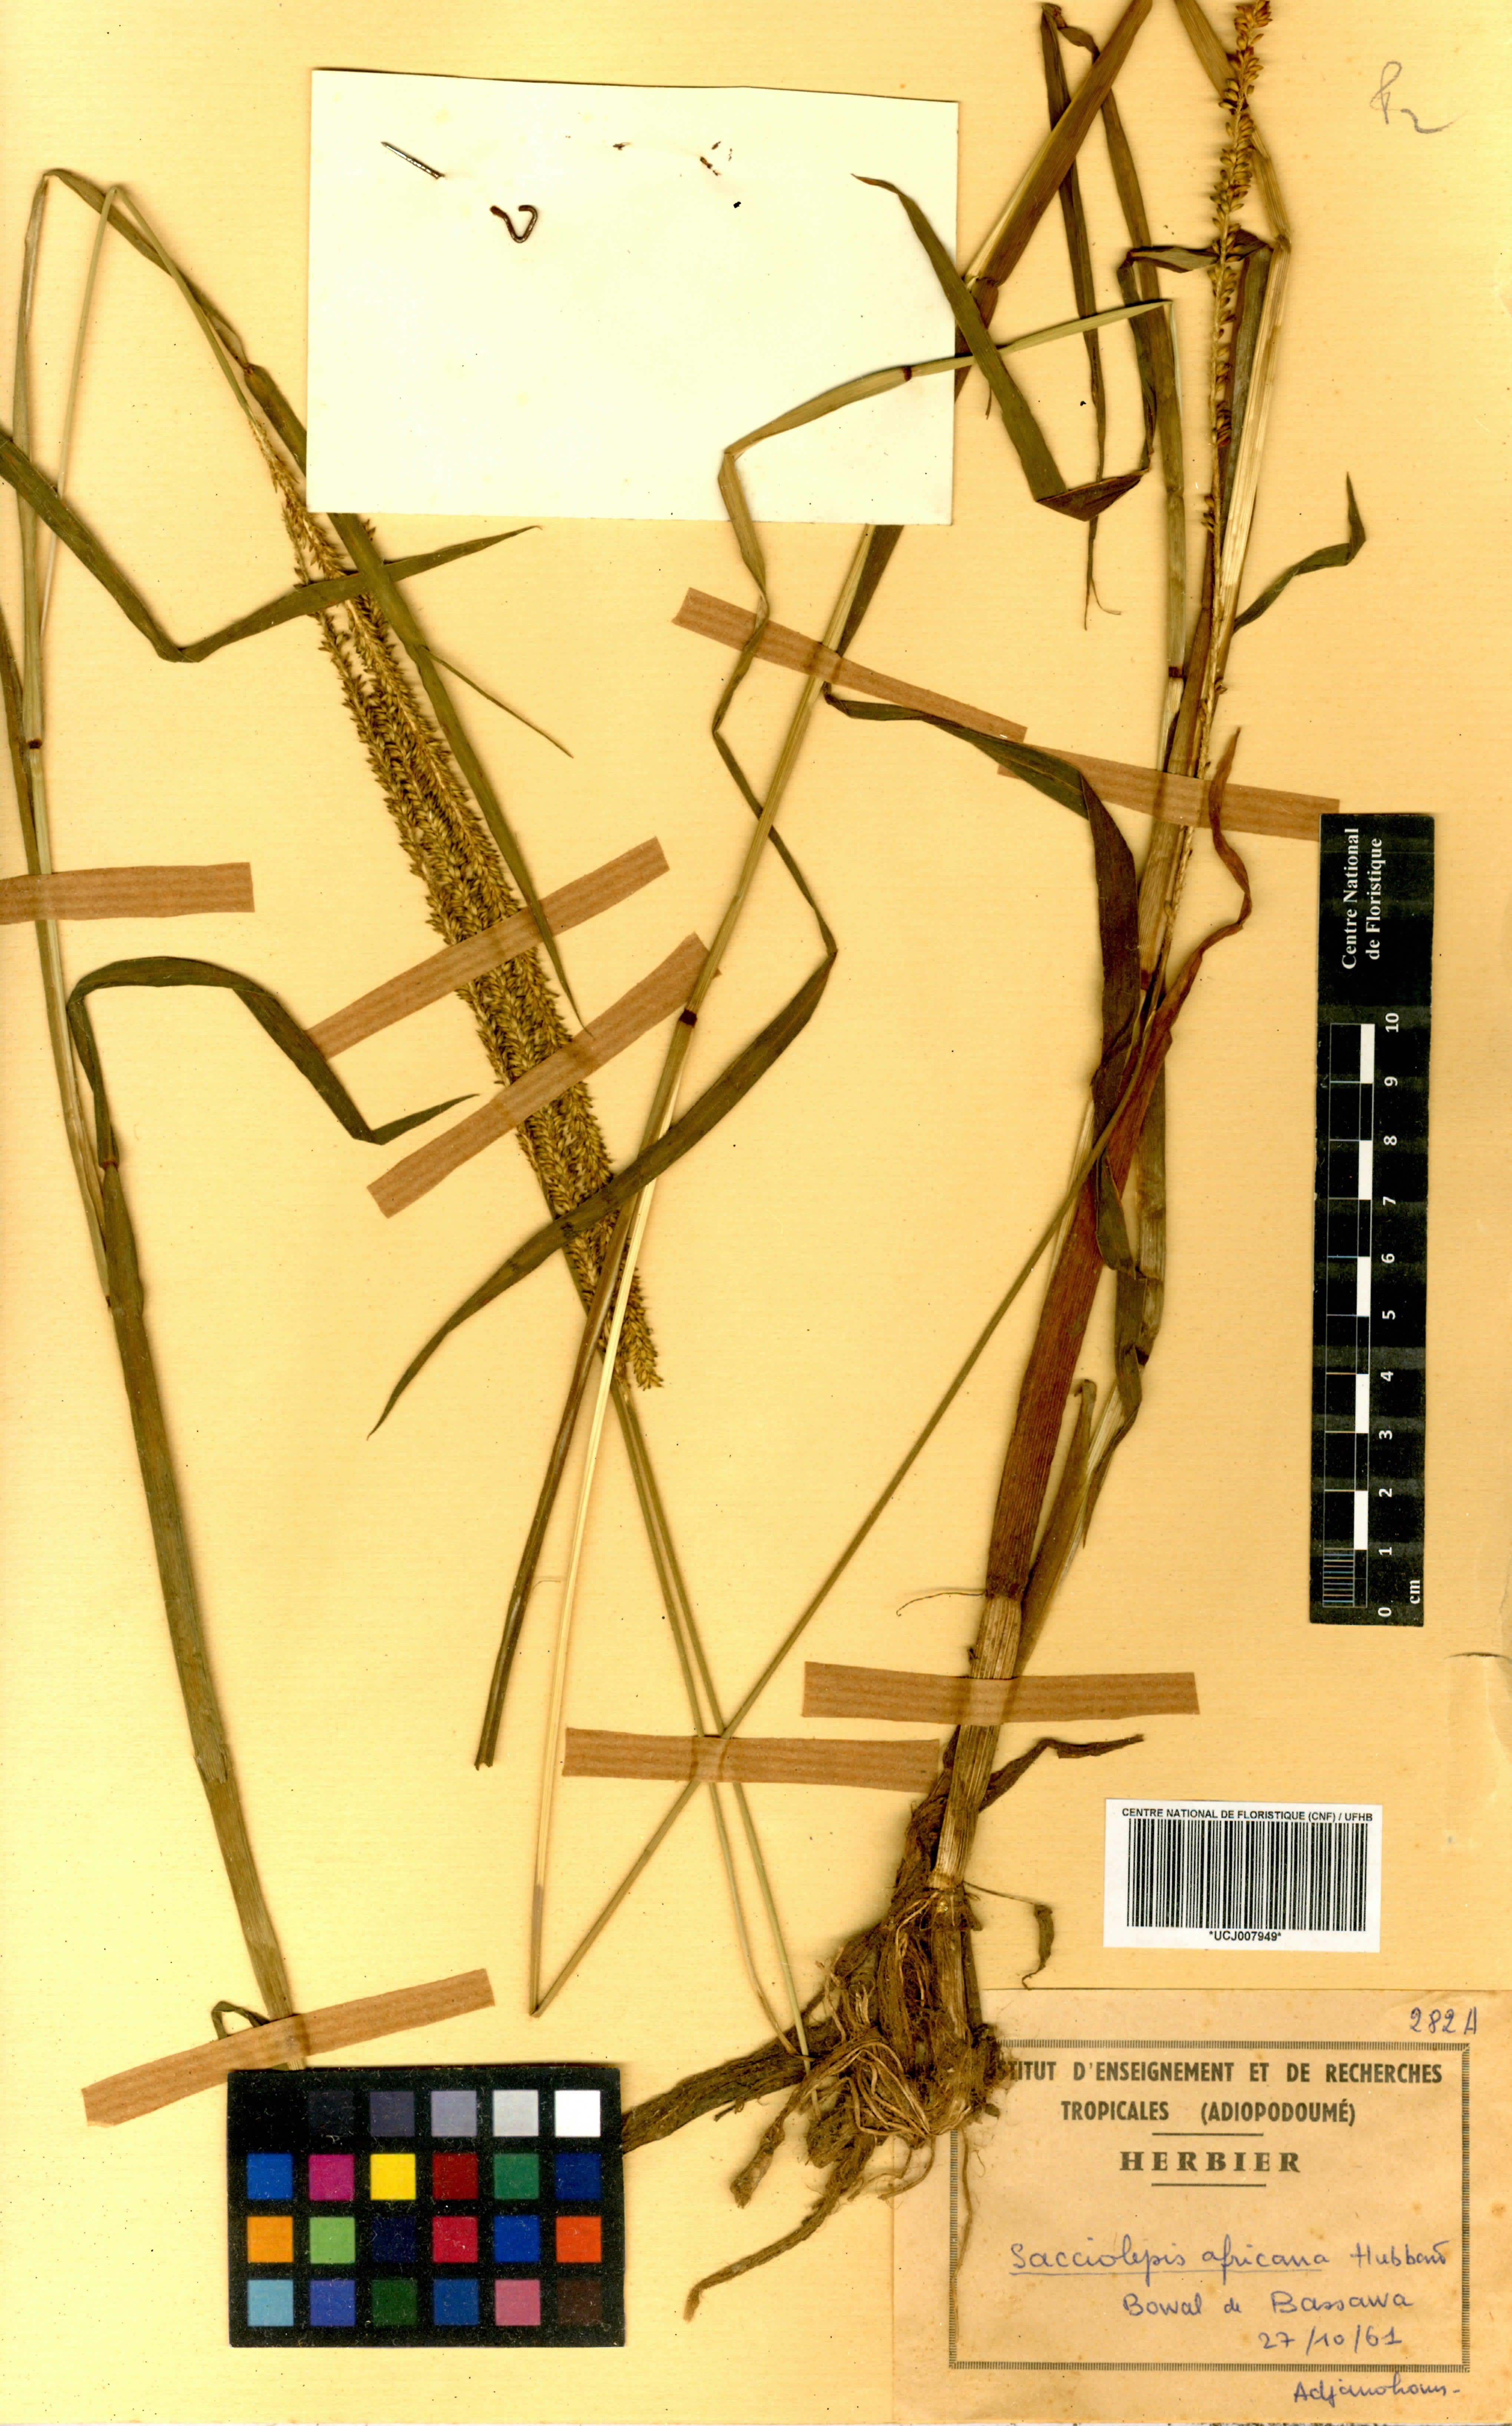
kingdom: Plantae
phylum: Tracheophyta
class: Liliopsida
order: Poales
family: Poaceae
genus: Sacciolepis
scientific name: Sacciolepis africana
